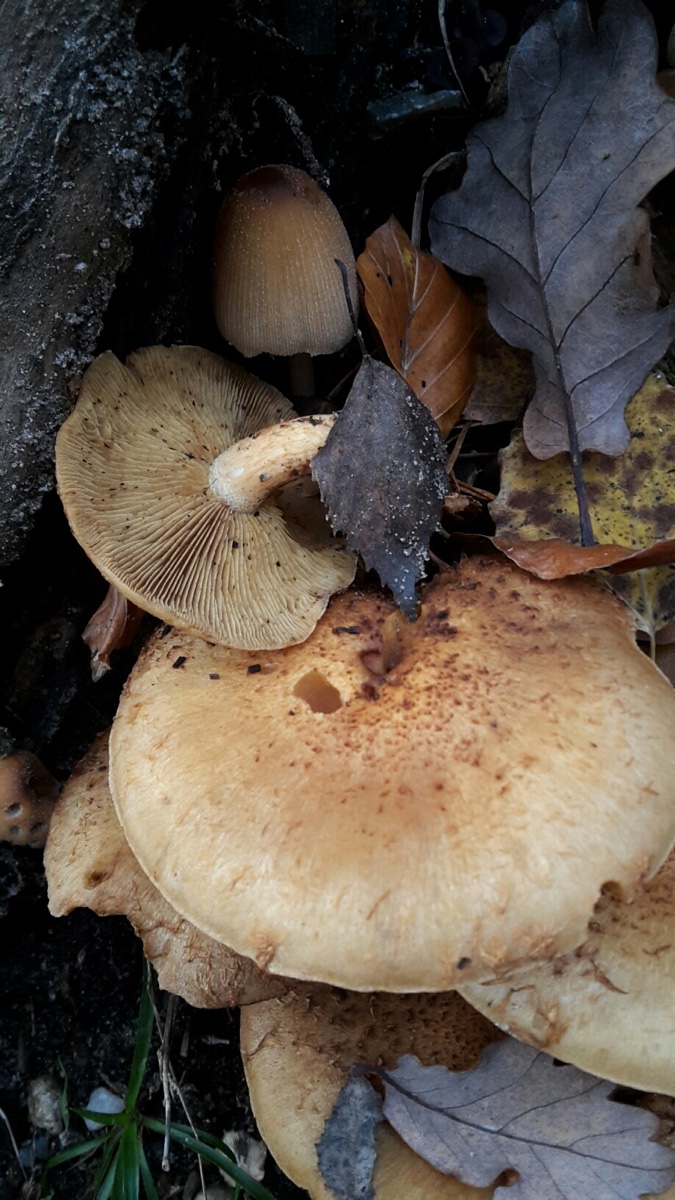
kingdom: Fungi
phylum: Basidiomycota
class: Agaricomycetes
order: Agaricales
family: Strophariaceae
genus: Pholiota
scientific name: Pholiota squarrosa
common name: krumskællet skælhat
